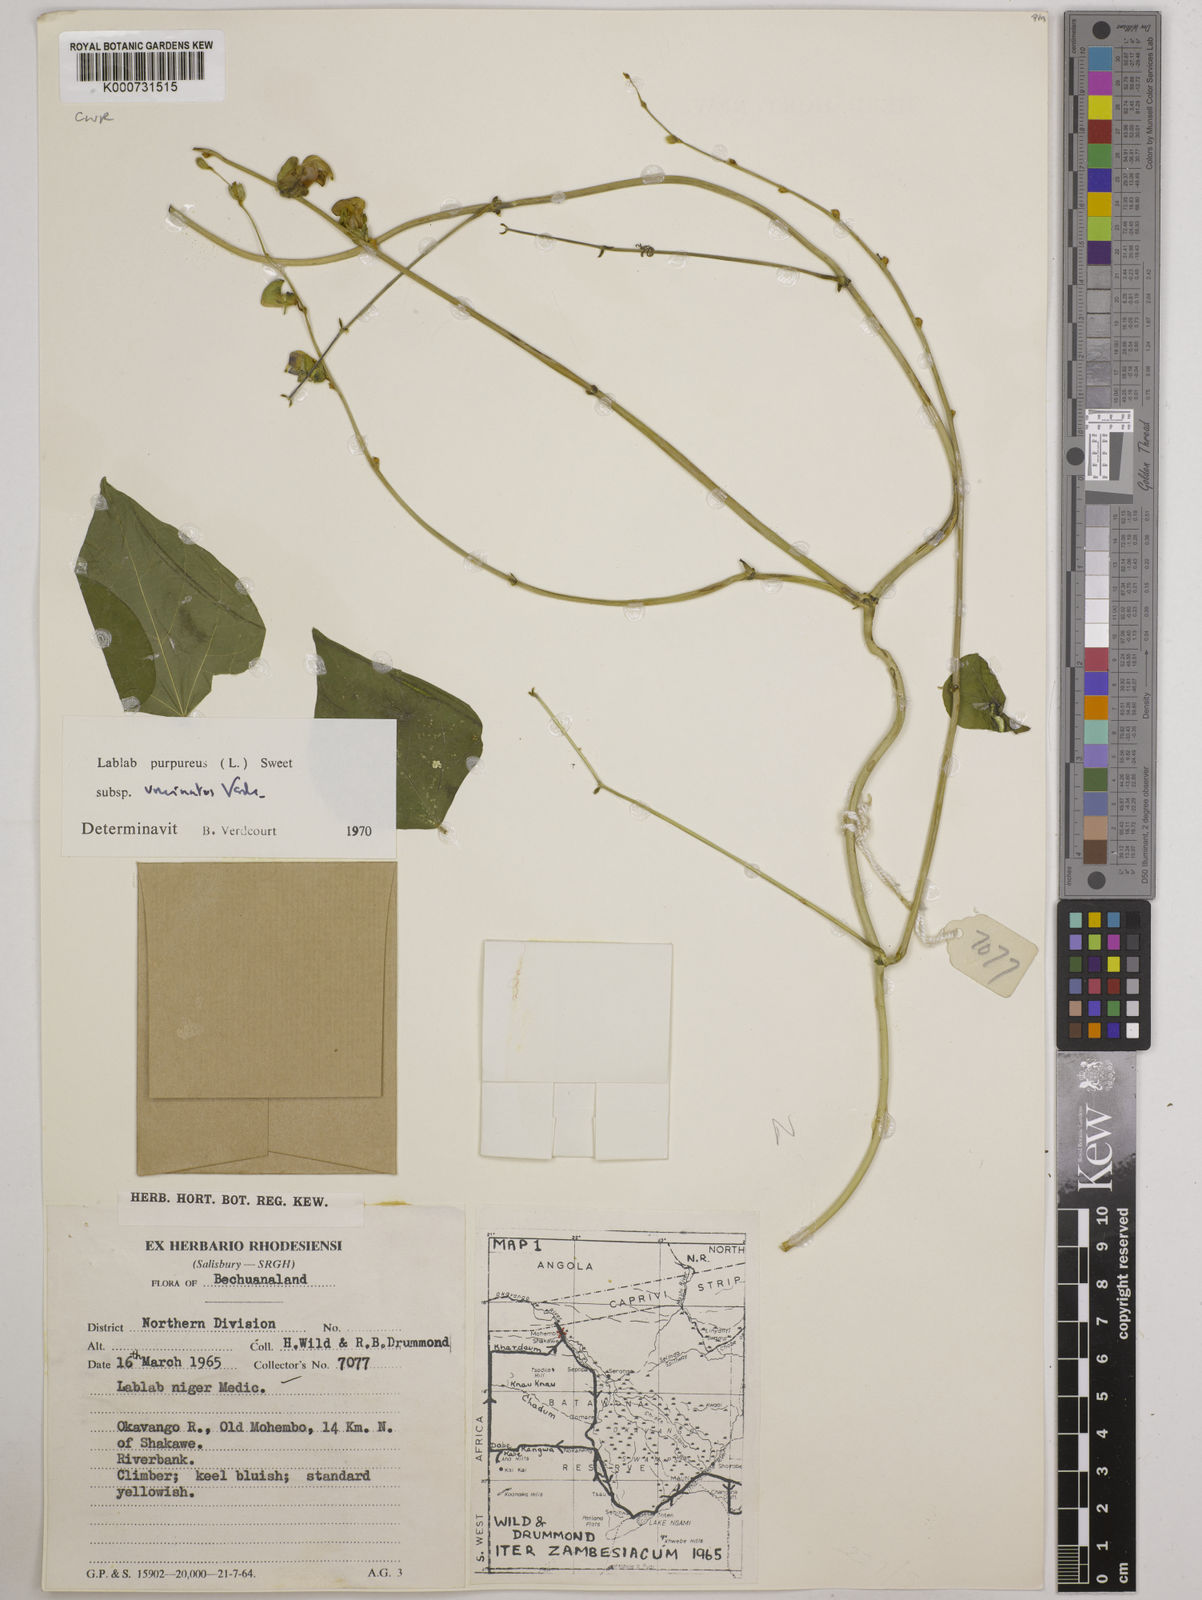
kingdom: Plantae
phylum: Tracheophyta
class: Magnoliopsida
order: Fabales
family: Fabaceae
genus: Lablab
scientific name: Lablab purpureus
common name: Lablab-bean
